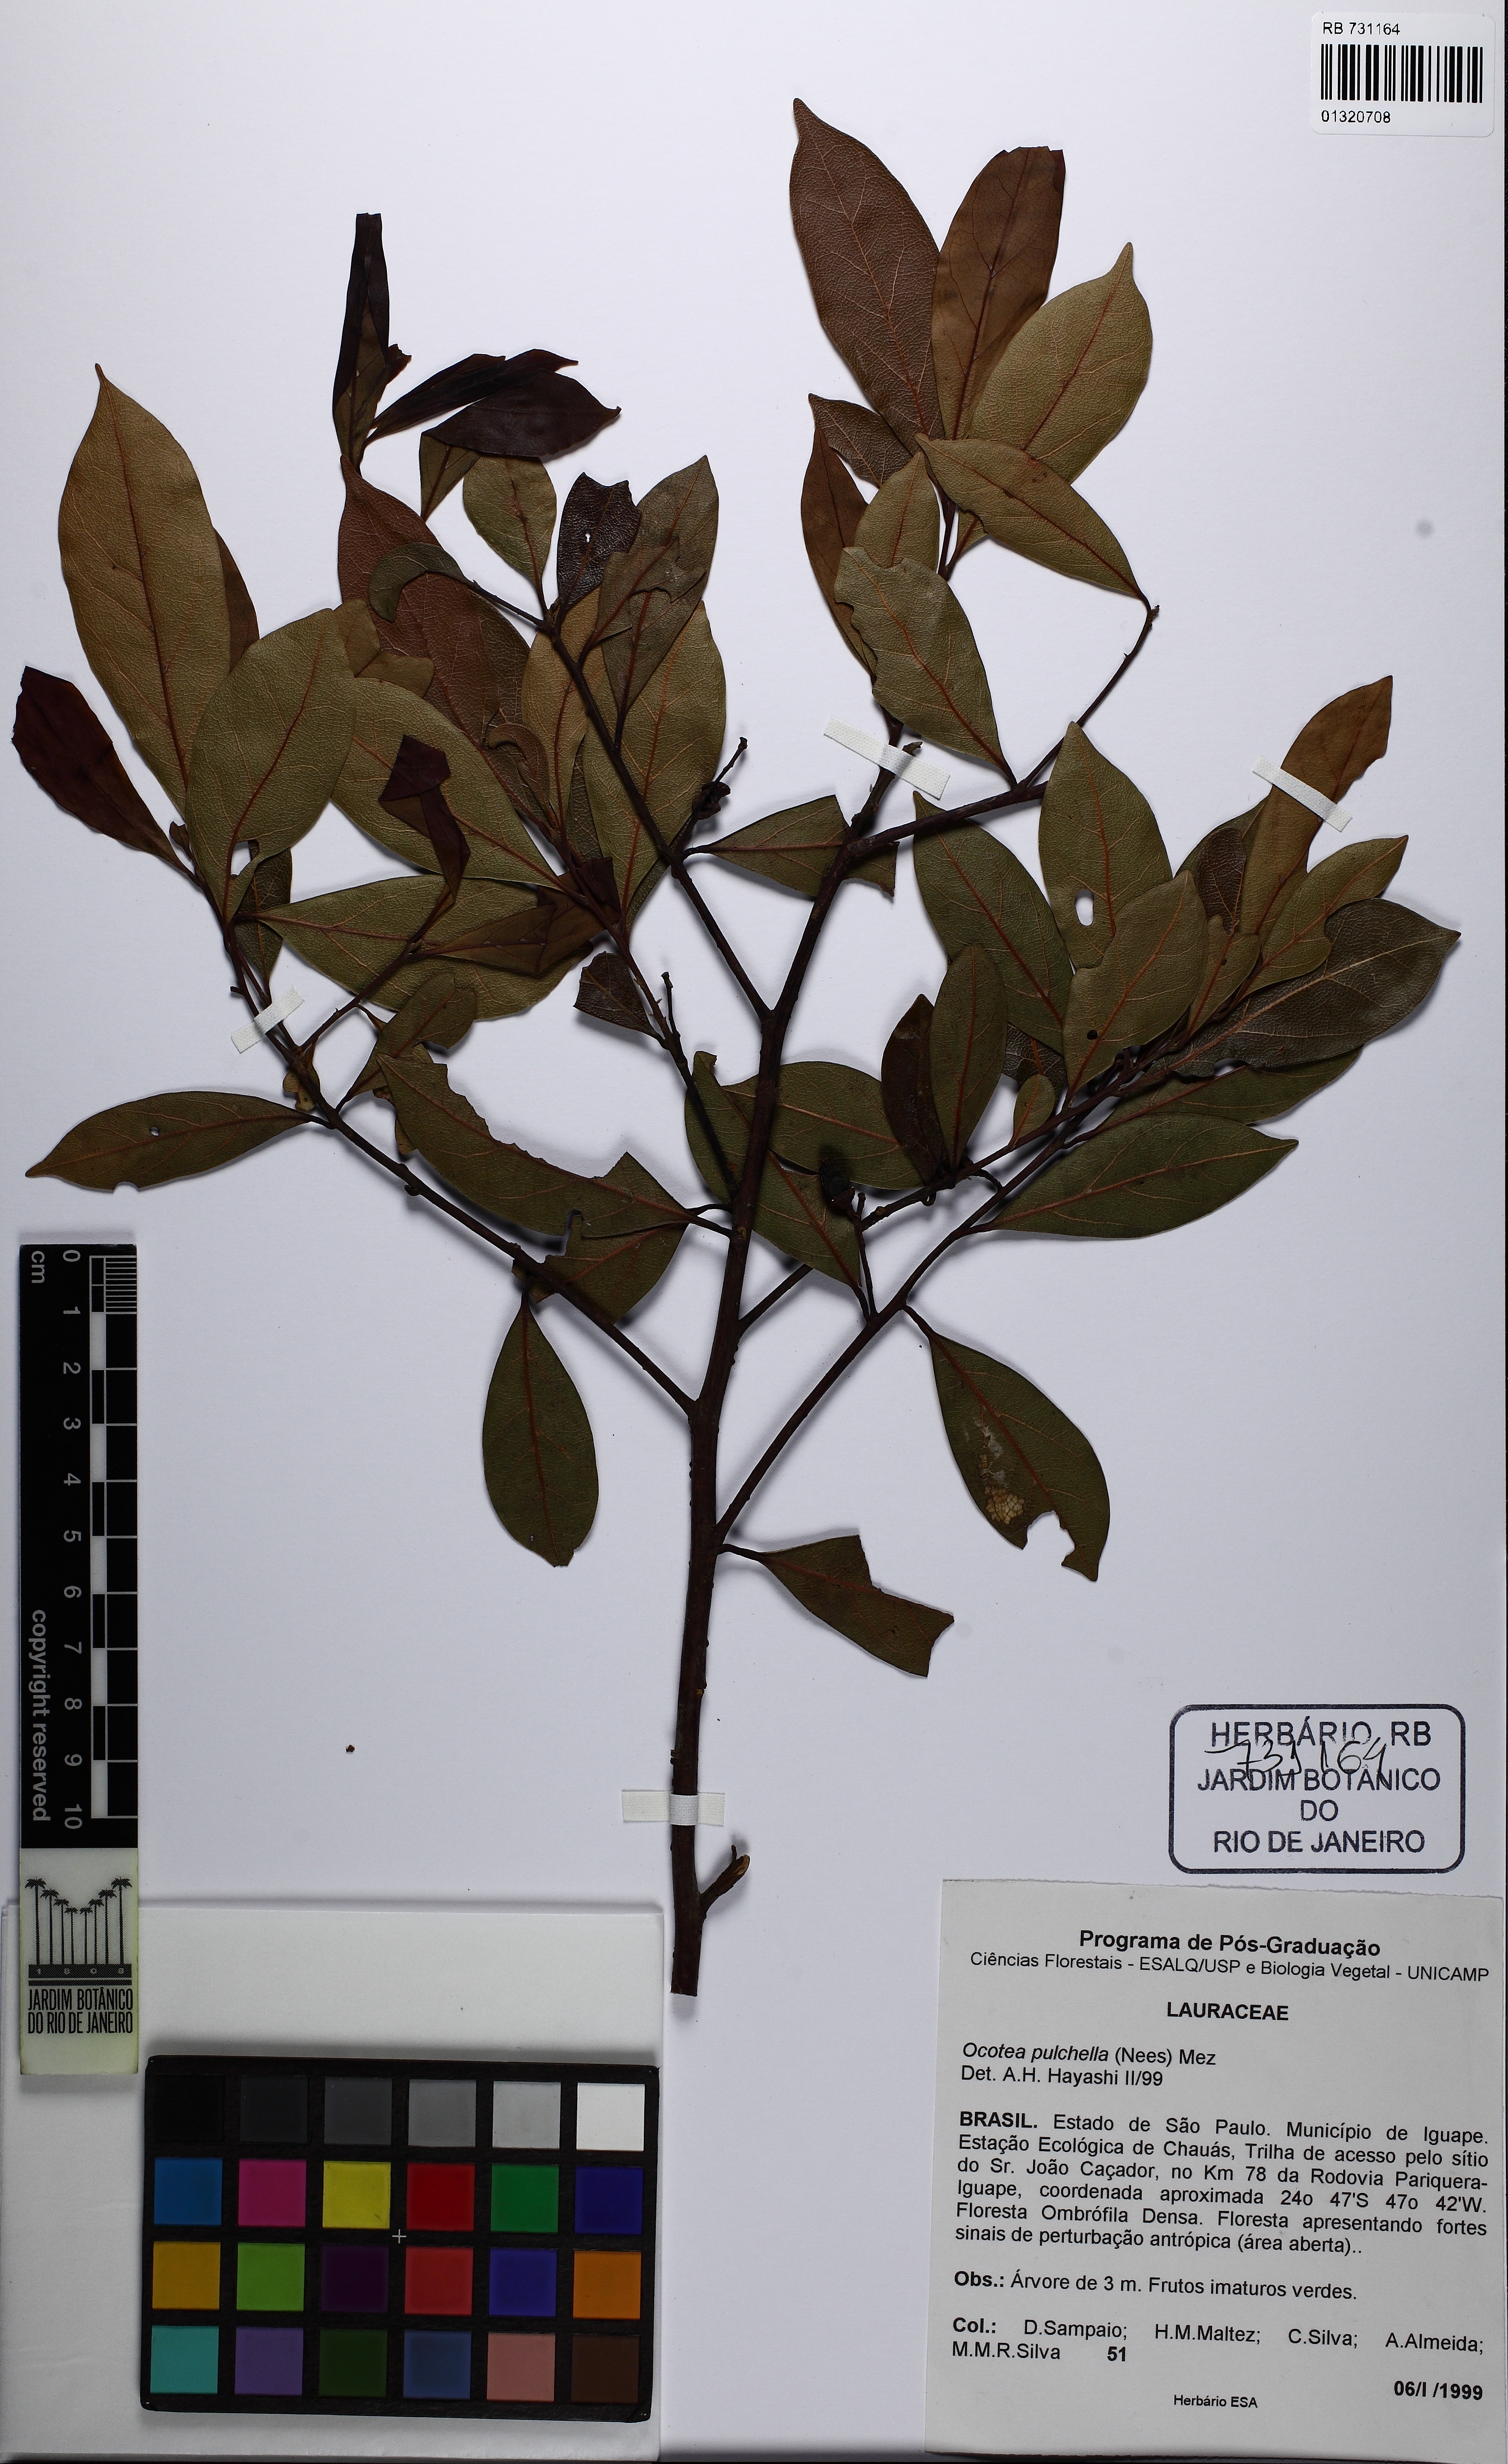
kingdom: Plantae
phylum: Tracheophyta
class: Magnoliopsida
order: Laurales
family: Lauraceae
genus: Mespilodaphne
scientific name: Mespilodaphne pulchella
